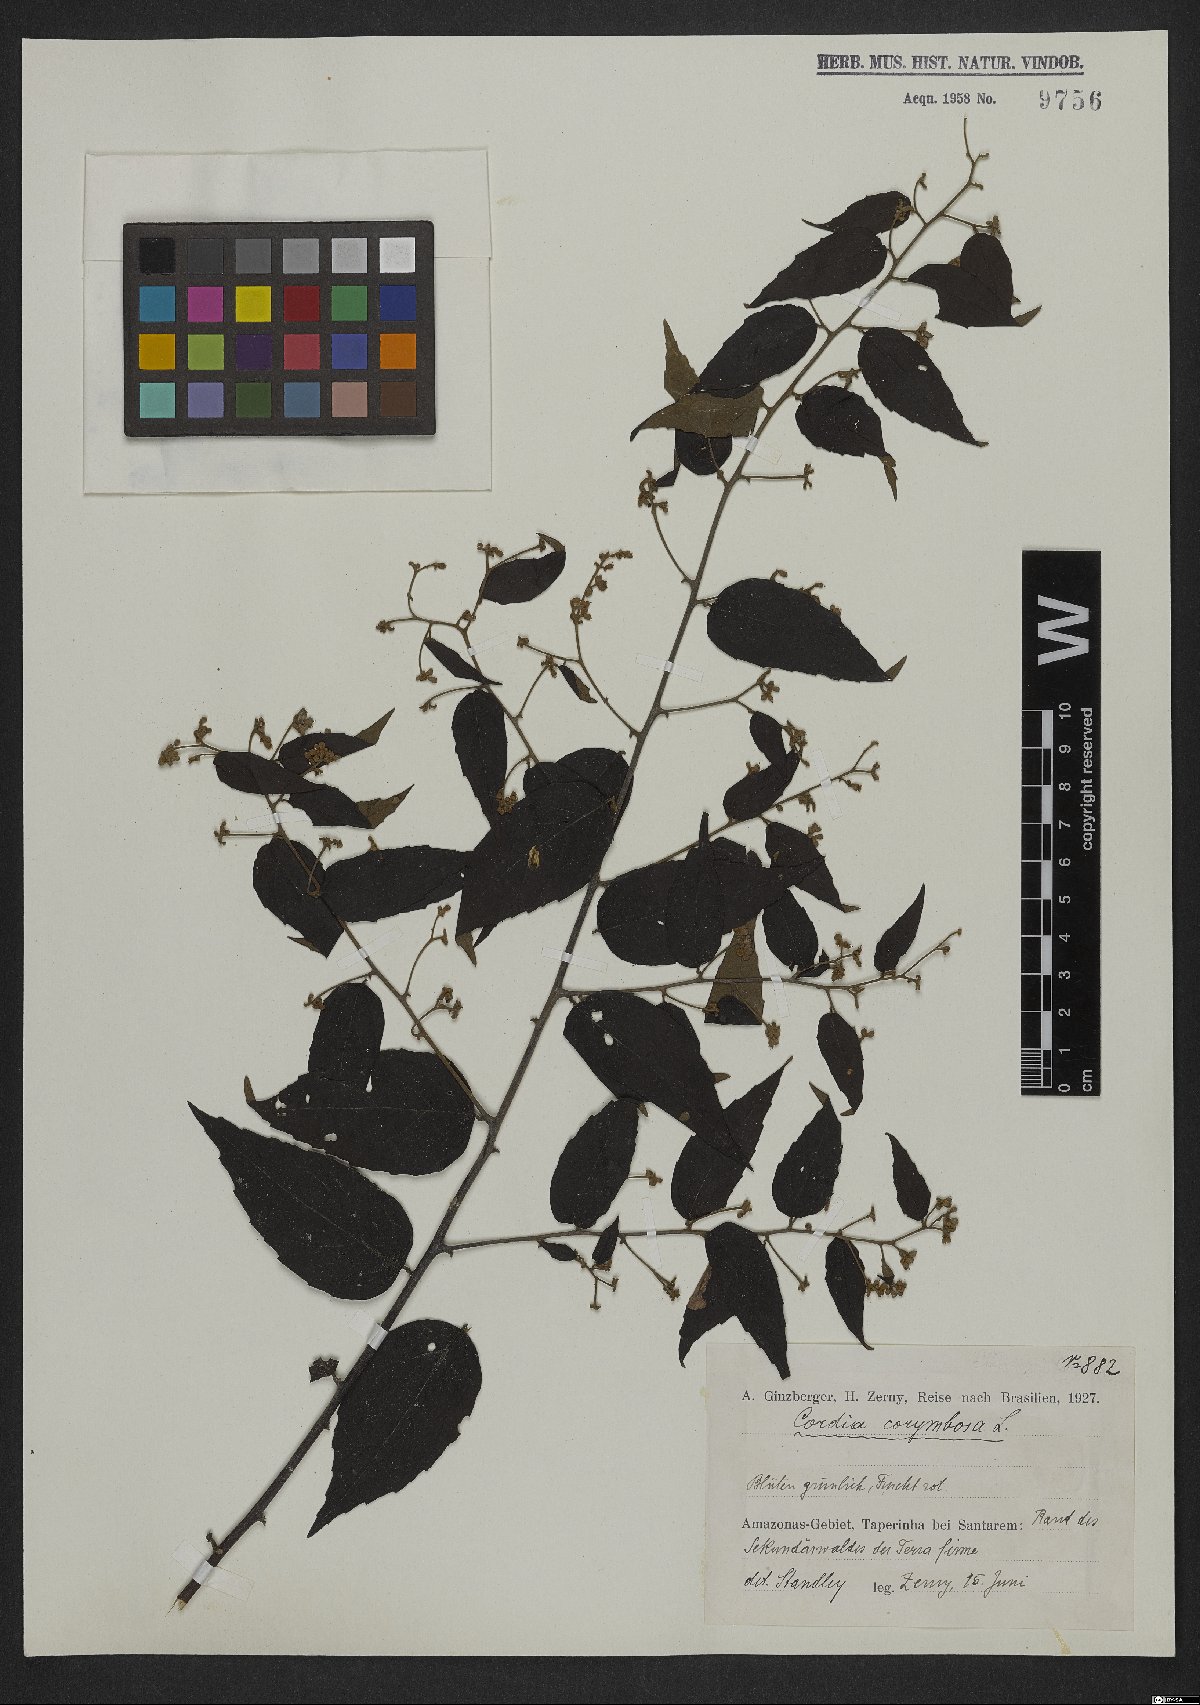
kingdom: Plantae
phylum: Tracheophyta
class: Magnoliopsida
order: Boraginales
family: Cordiaceae
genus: Varronia
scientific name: Varronia polycephala
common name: Black-sage
